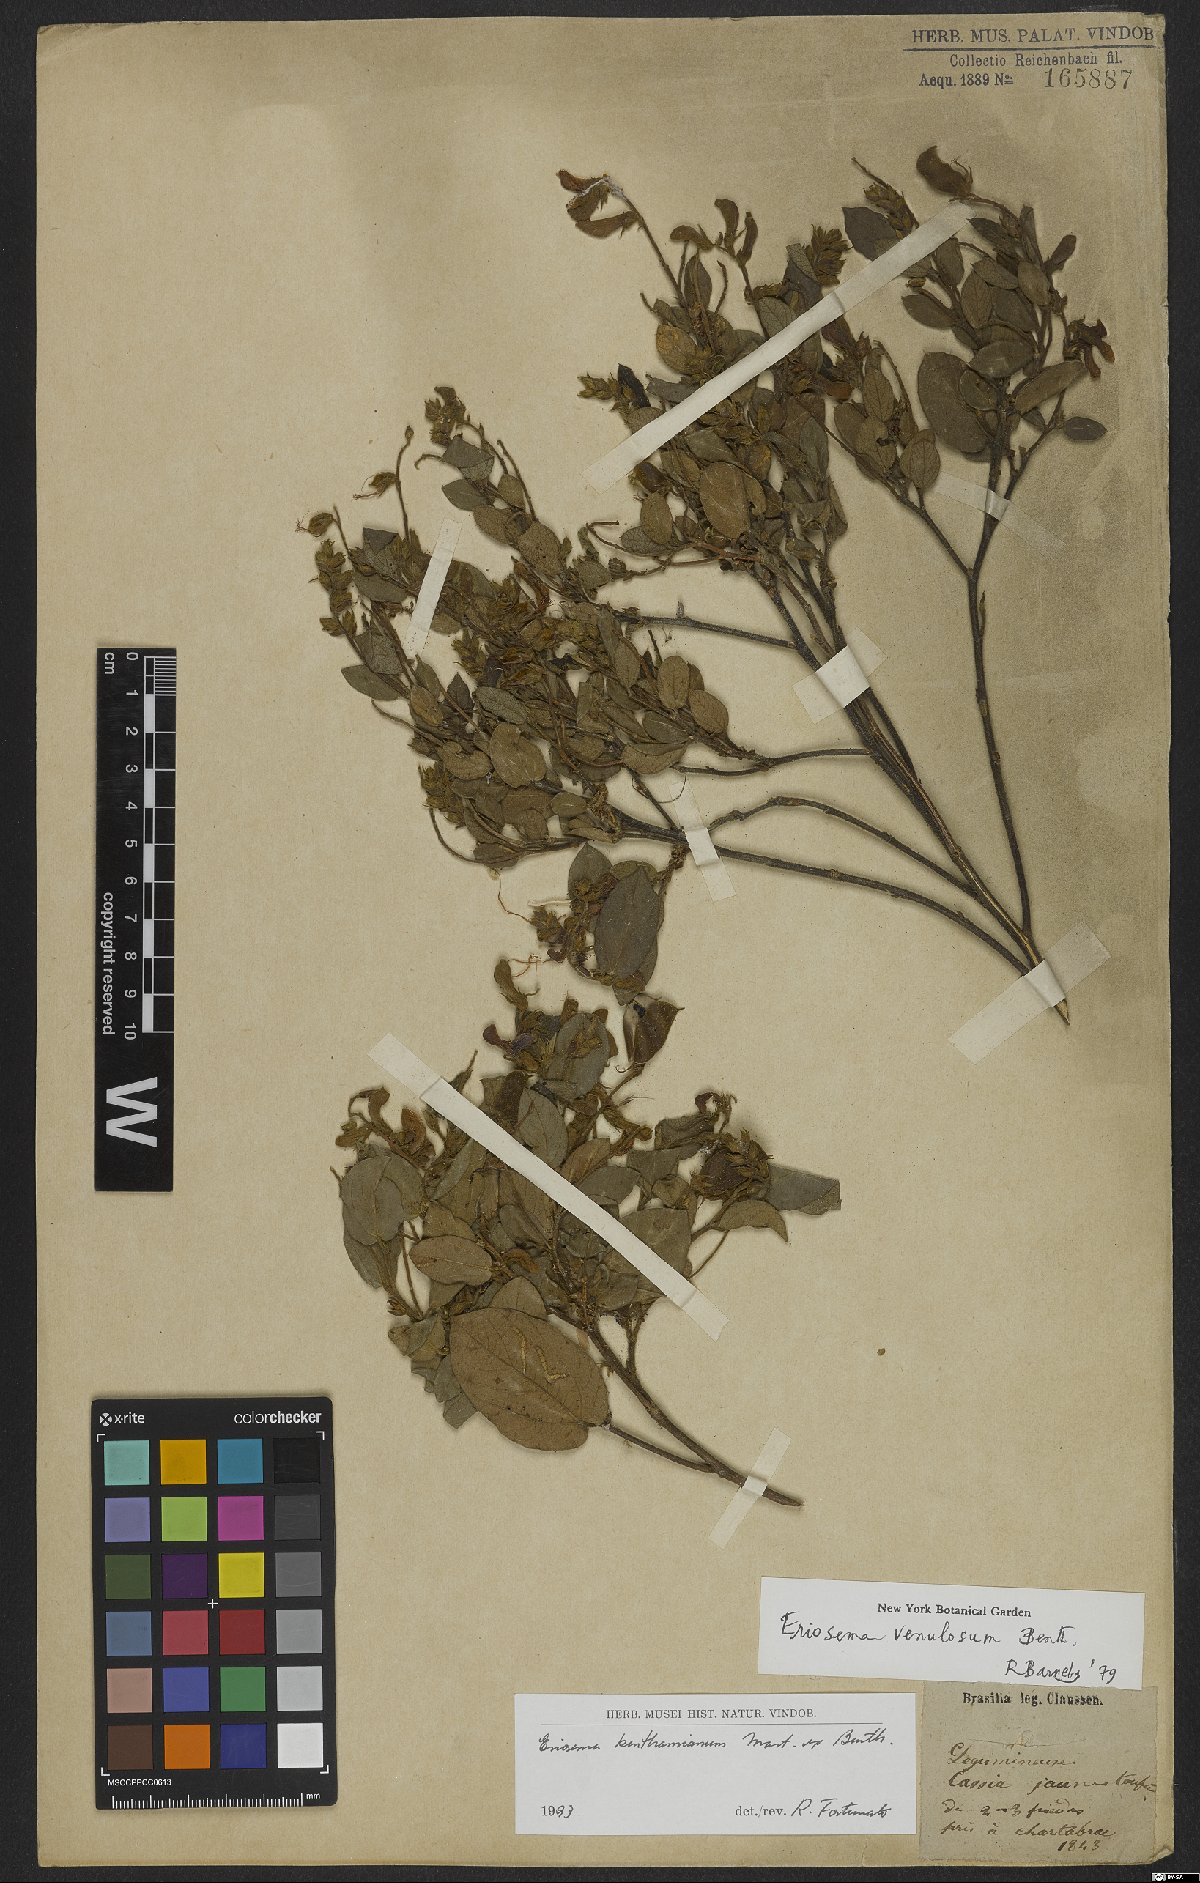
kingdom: Plantae
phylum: Tracheophyta
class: Magnoliopsida
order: Fabales
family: Fabaceae
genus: Eriosema
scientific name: Eriosema benthamianum
